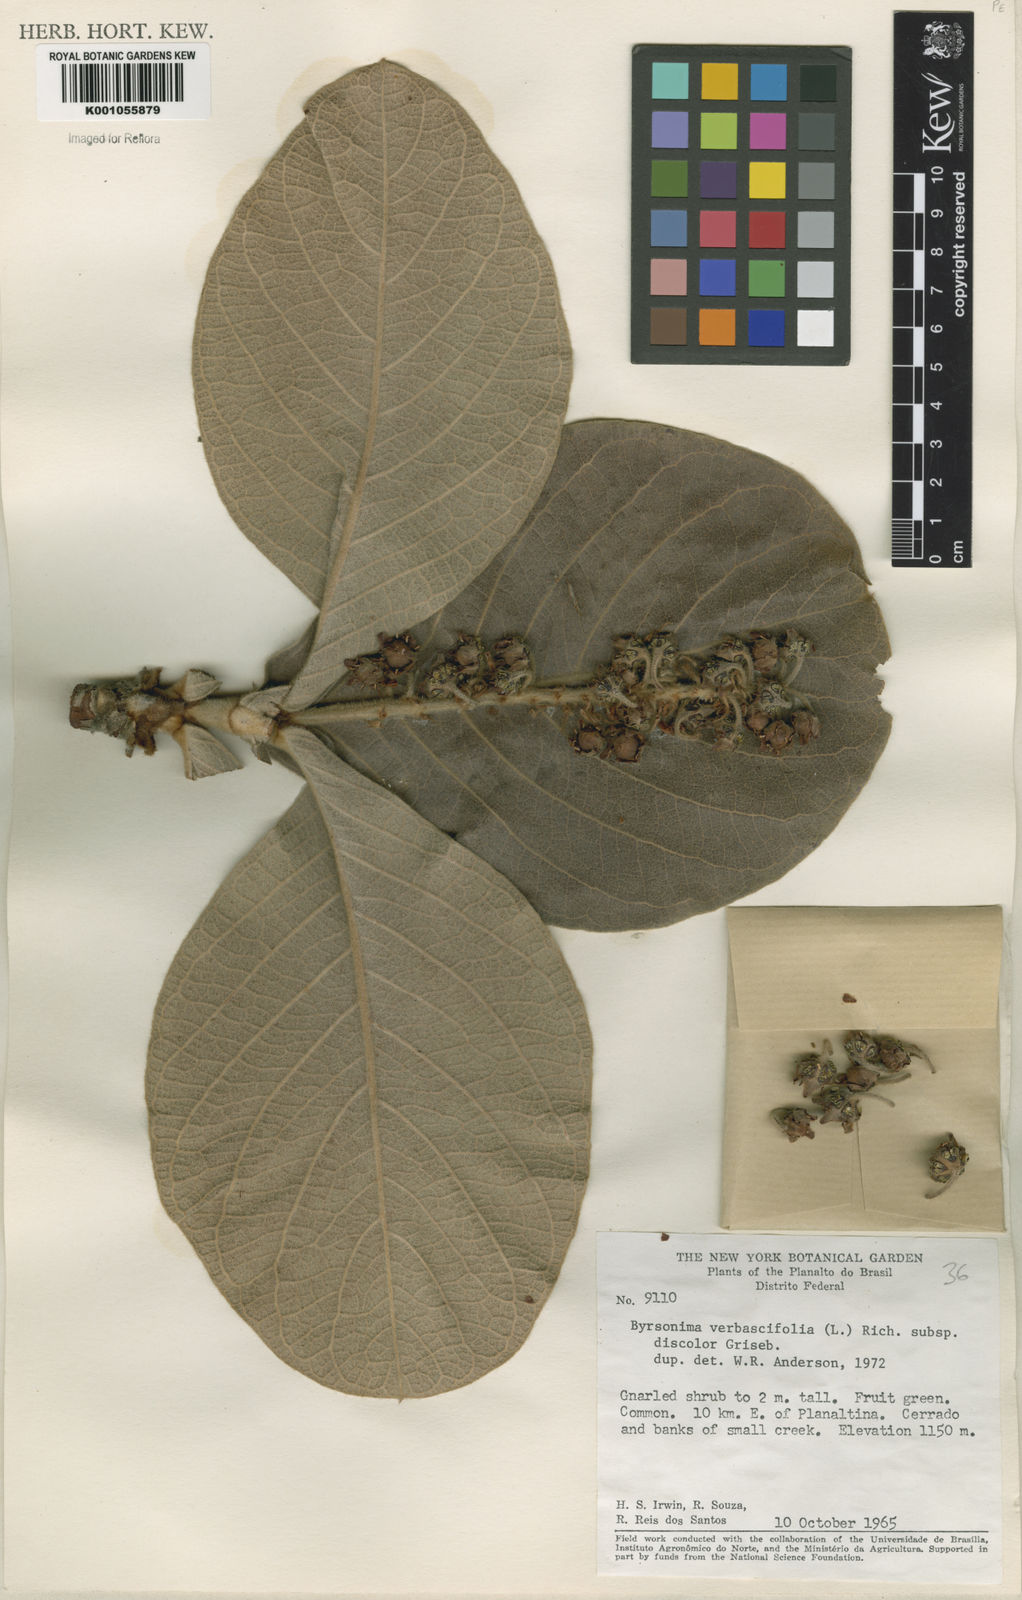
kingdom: Plantae
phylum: Tracheophyta
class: Magnoliopsida
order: Malpighiales
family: Malpighiaceae
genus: Byrsonima
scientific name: Byrsonima verbascifolia
